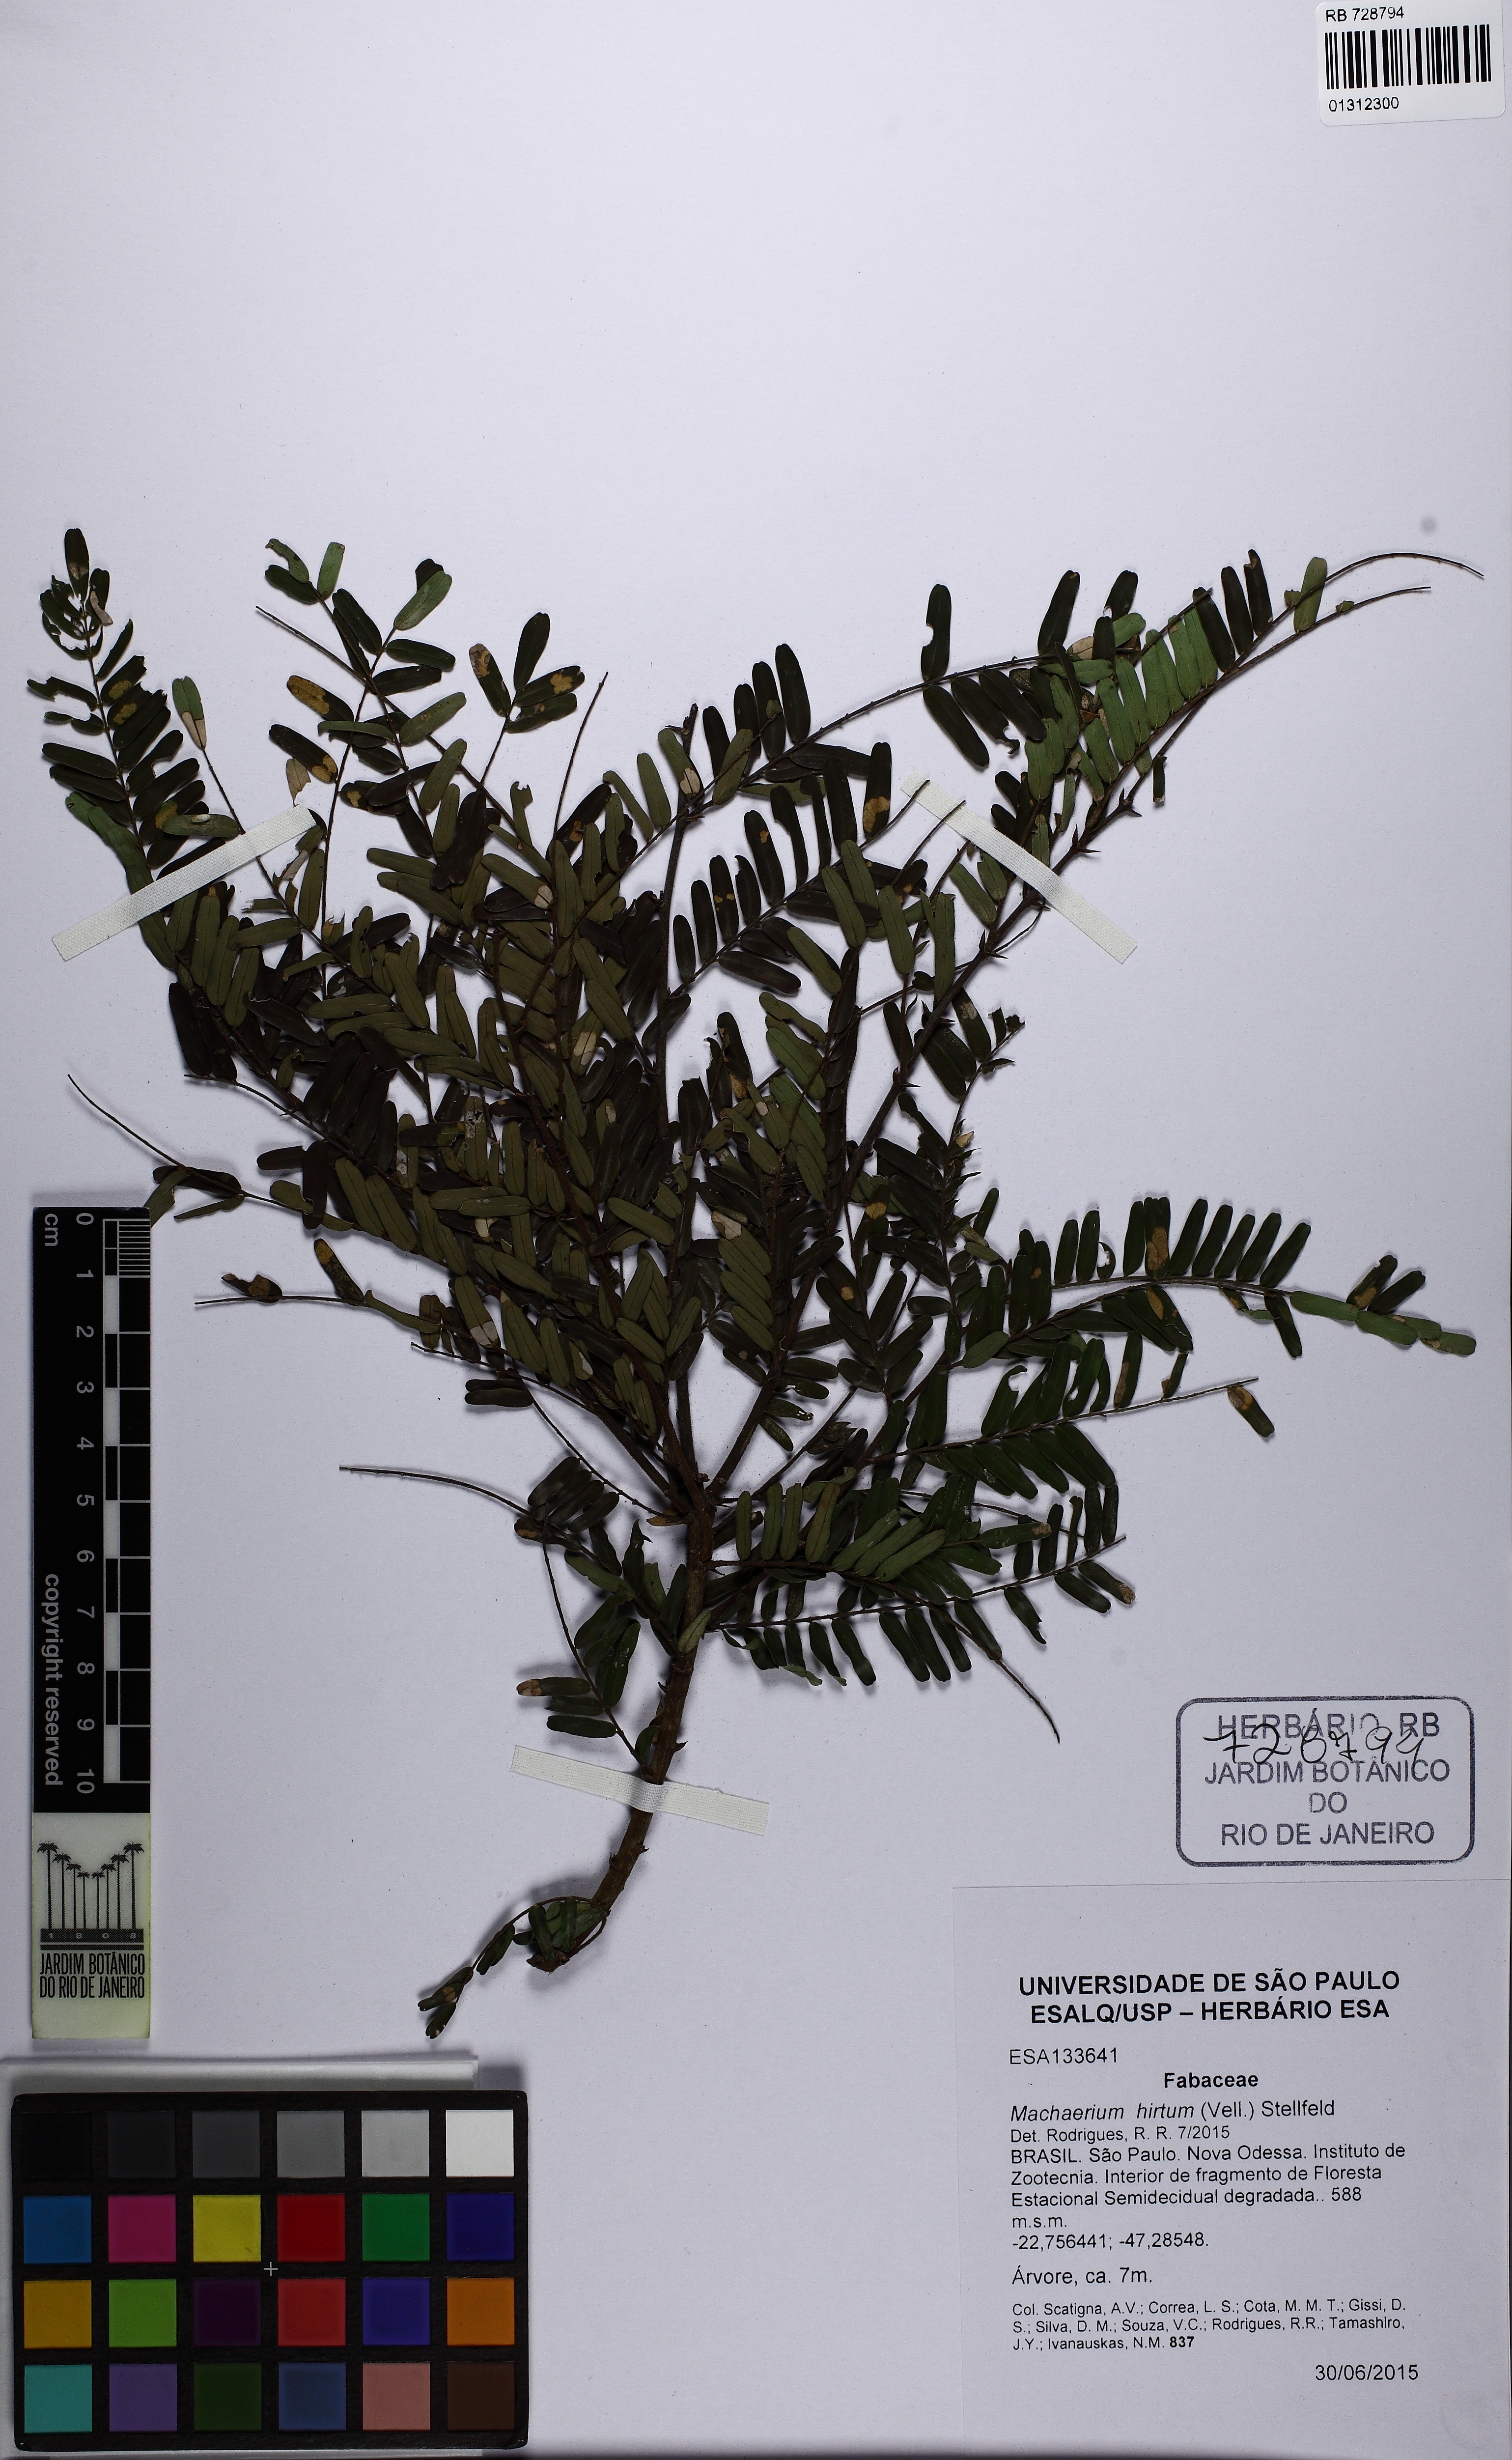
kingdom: Plantae
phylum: Tracheophyta
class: Magnoliopsida
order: Fabales
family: Fabaceae
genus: Machaerium
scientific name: Machaerium hirtum
